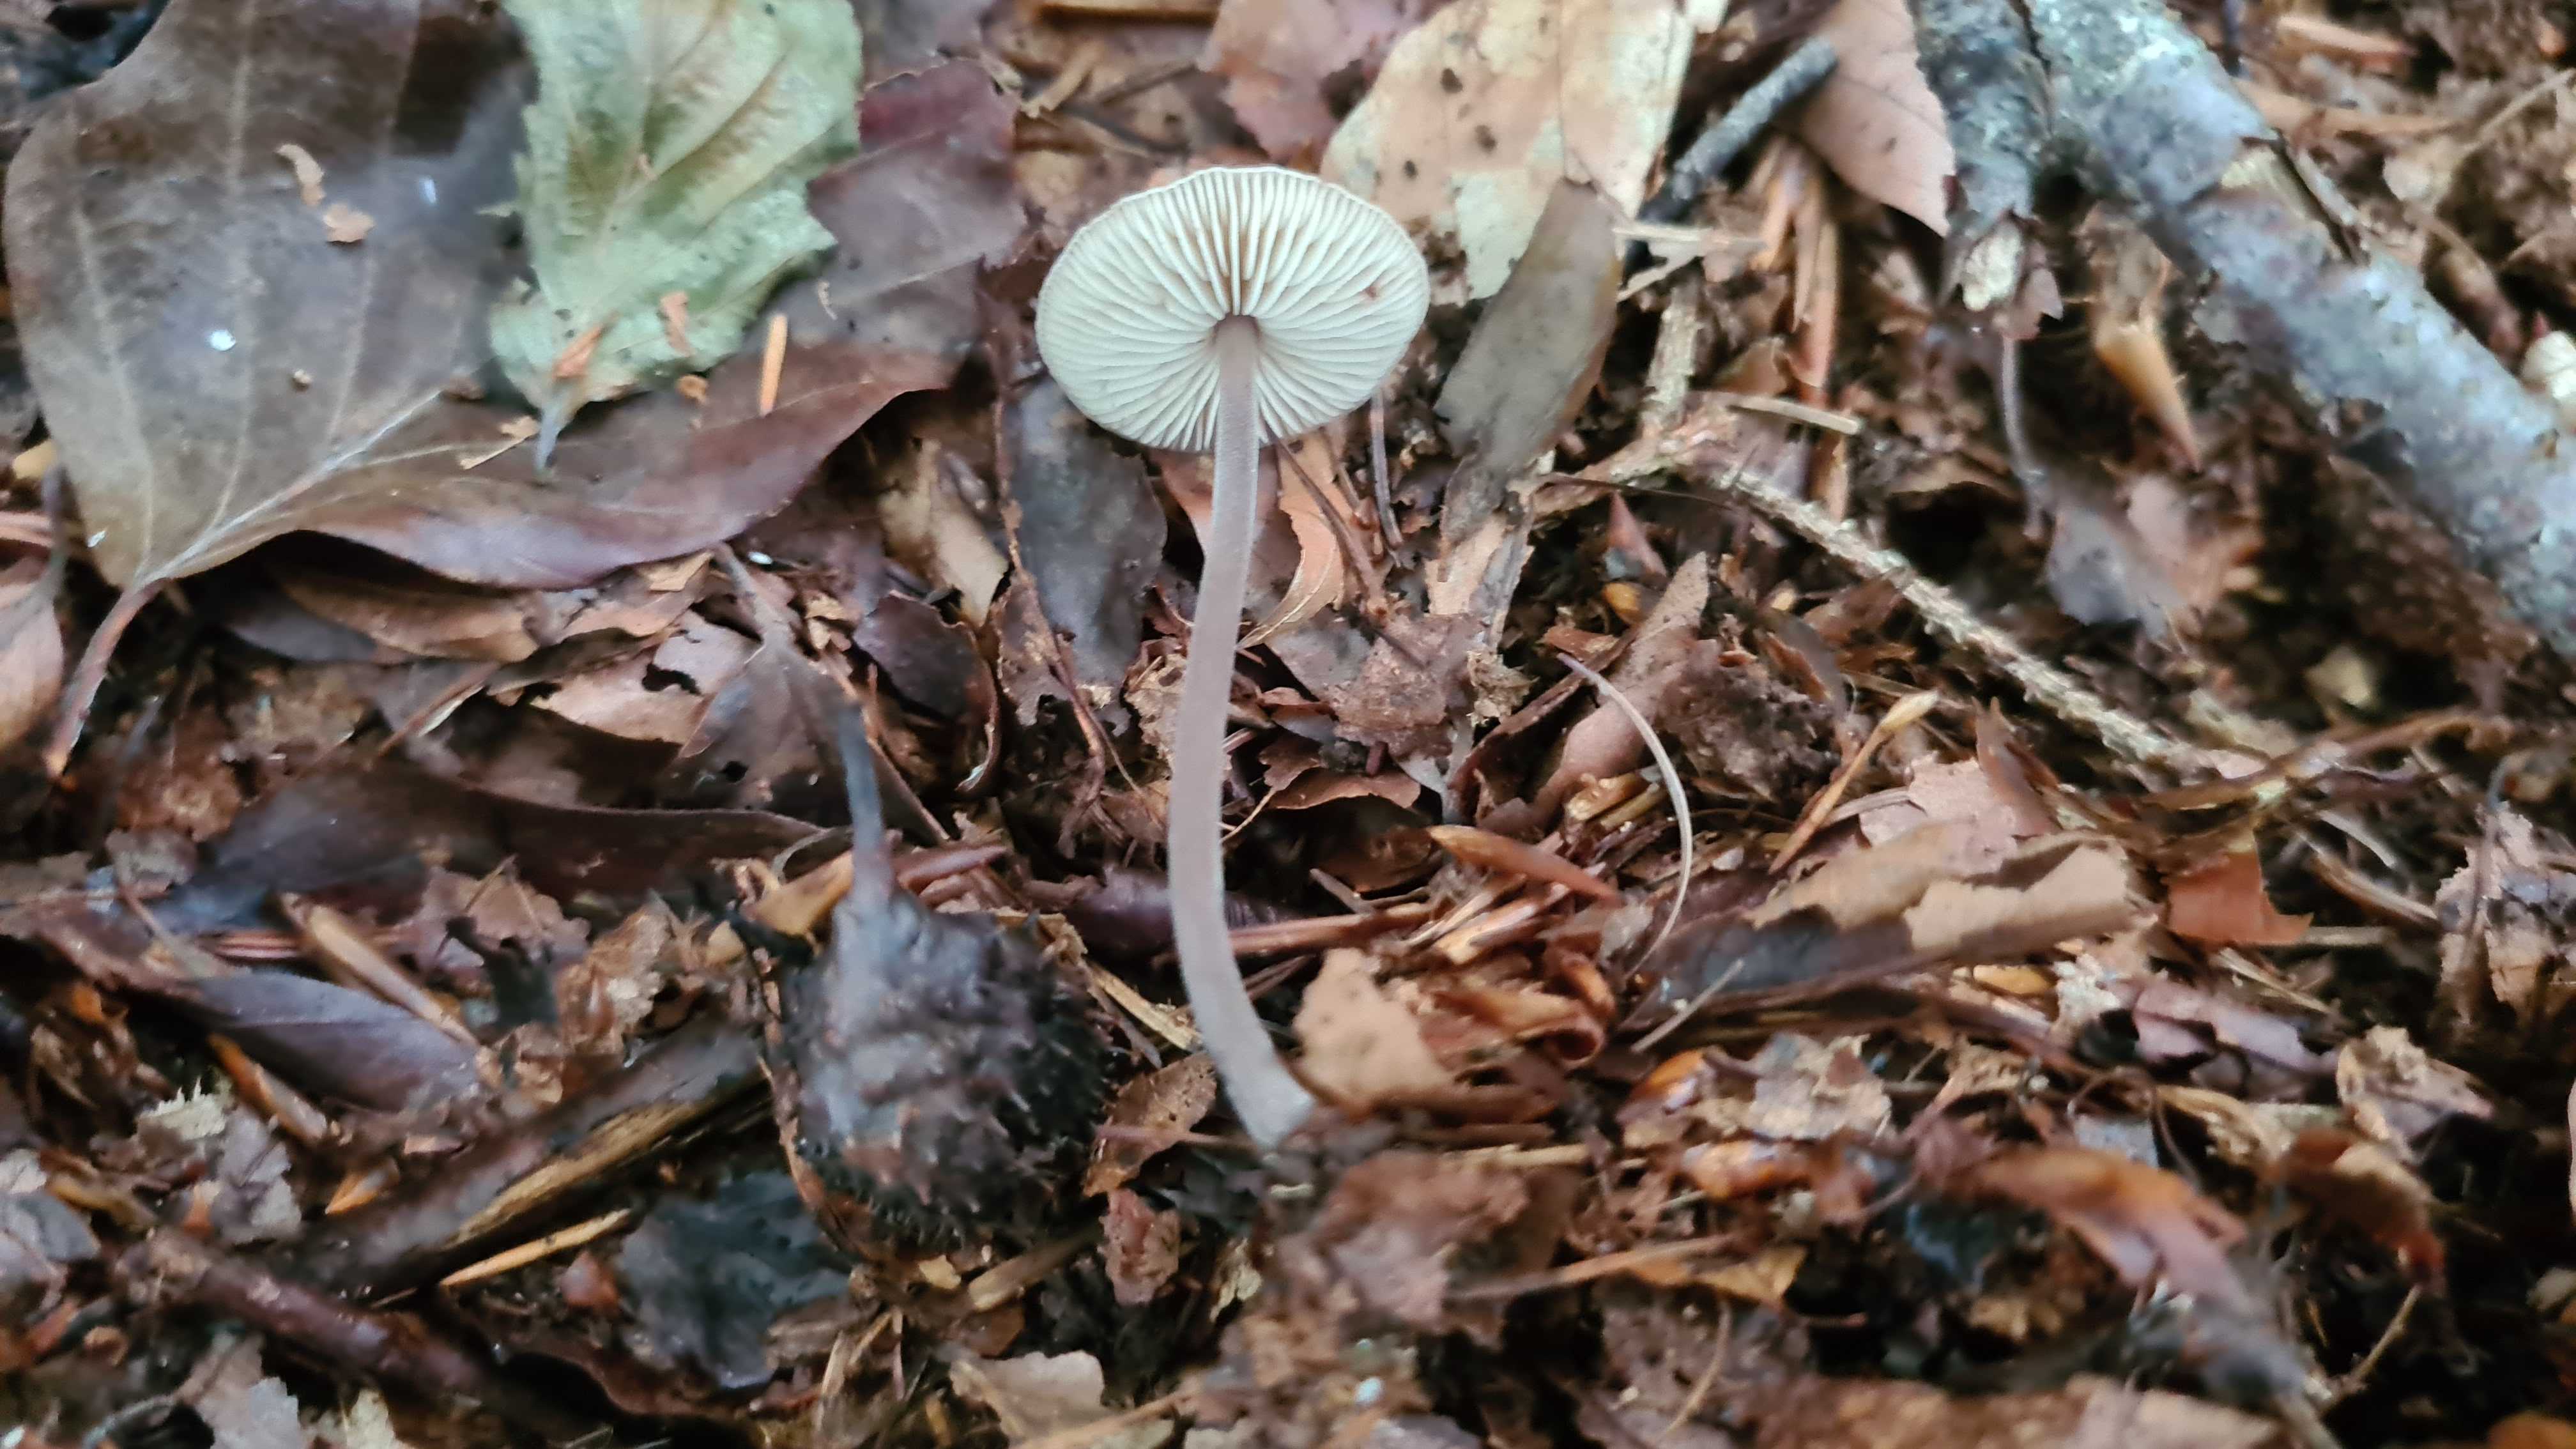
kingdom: Fungi
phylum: Basidiomycota
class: Agaricomycetes
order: Agaricales
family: Omphalotaceae
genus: Mycetinis
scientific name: Mycetinis alliaceus
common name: stor løghat
